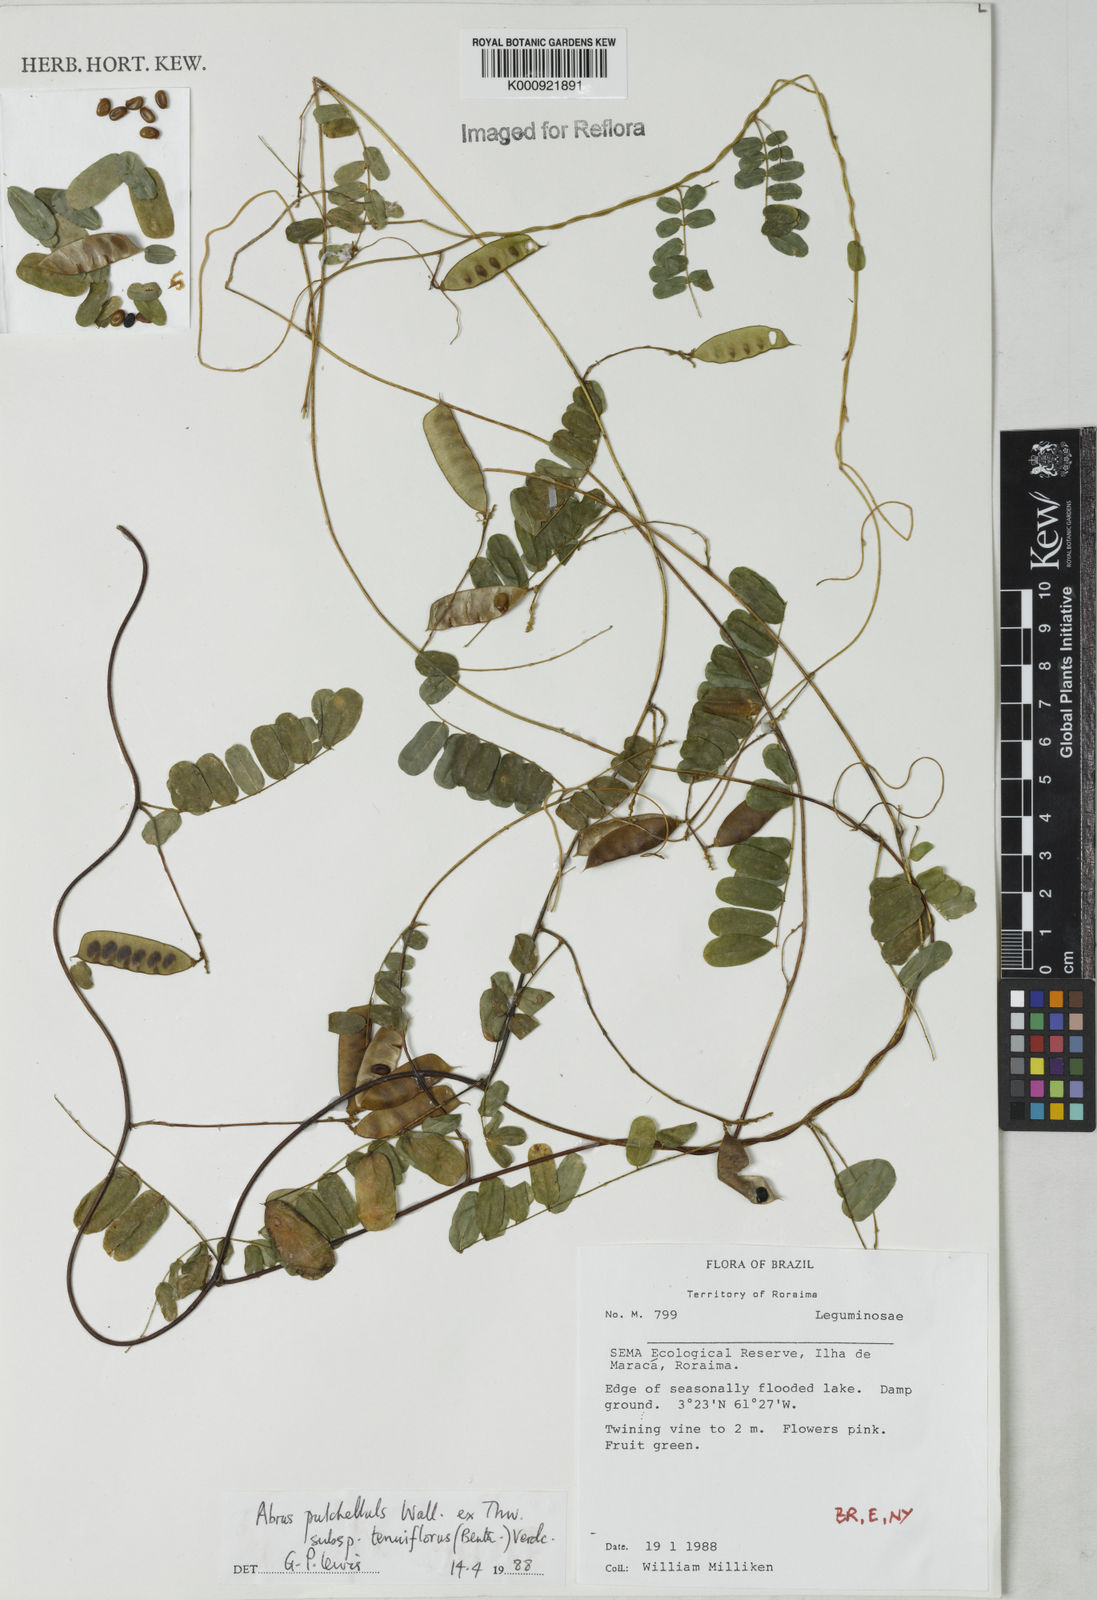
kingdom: Plantae
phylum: Tracheophyta
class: Magnoliopsida
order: Fabales
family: Fabaceae
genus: Abrus
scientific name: Abrus melanospermus
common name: Licorice-root
